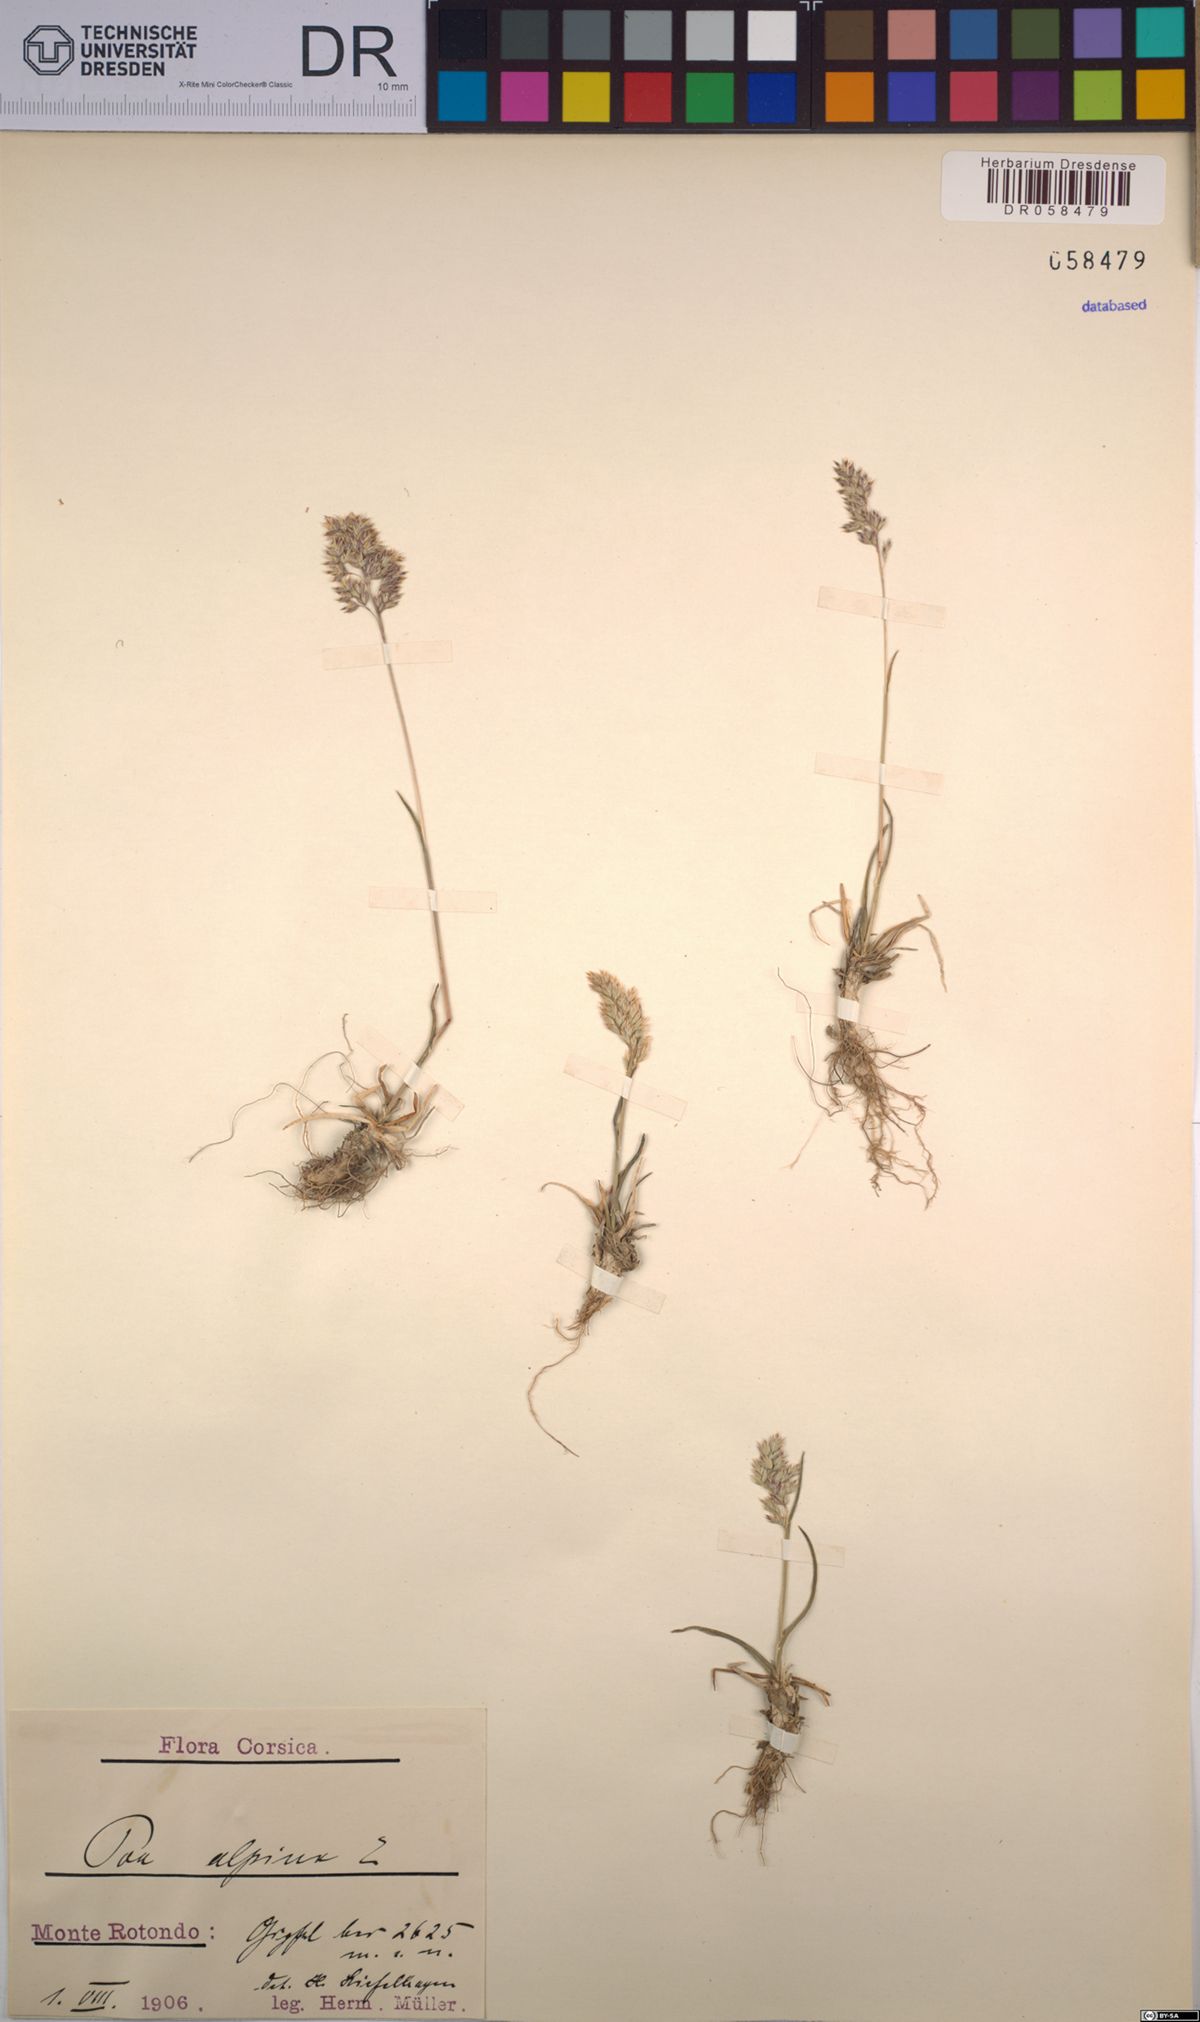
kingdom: Plantae
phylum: Tracheophyta
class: Liliopsida
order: Poales
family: Poaceae
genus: Poa
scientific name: Poa alpina
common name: Alpine bluegrass
